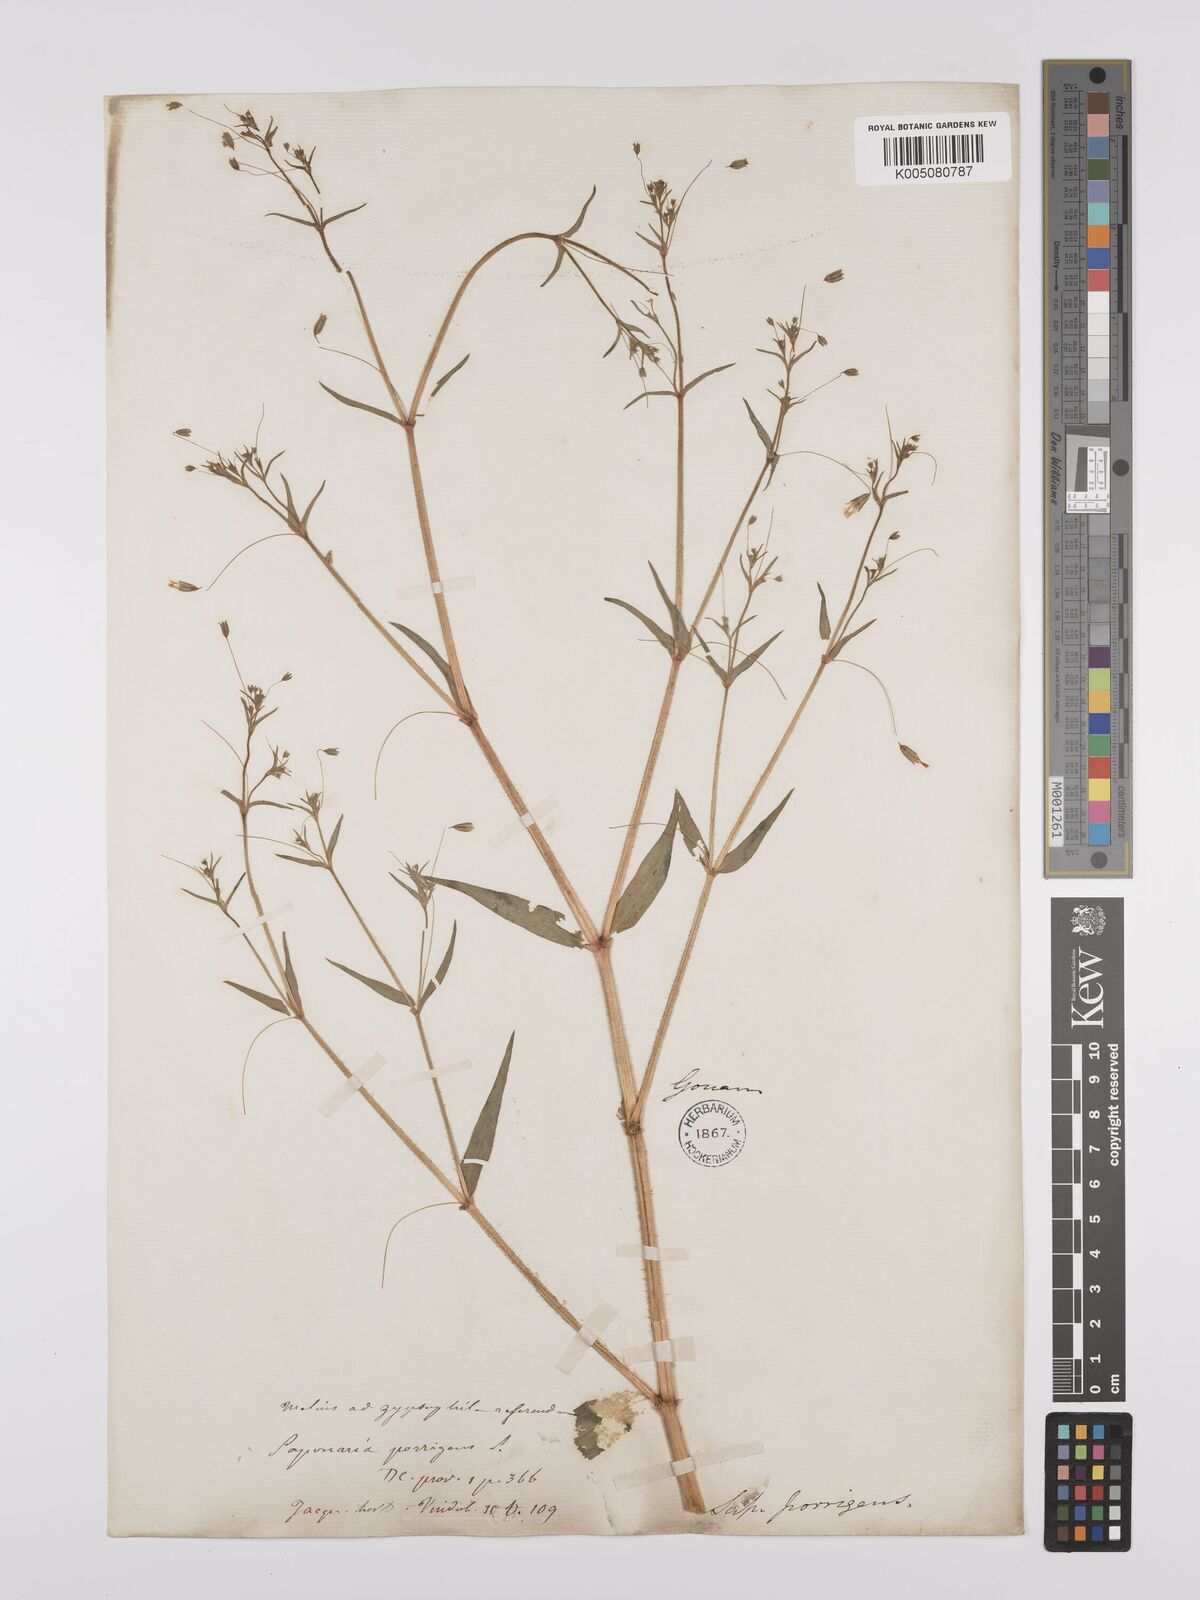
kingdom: Plantae
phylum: Tracheophyta
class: Magnoliopsida
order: Caryophyllales
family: Caryophyllaceae
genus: Gypsophila
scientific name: Gypsophila pilosa
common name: Turkish baby's-breath
